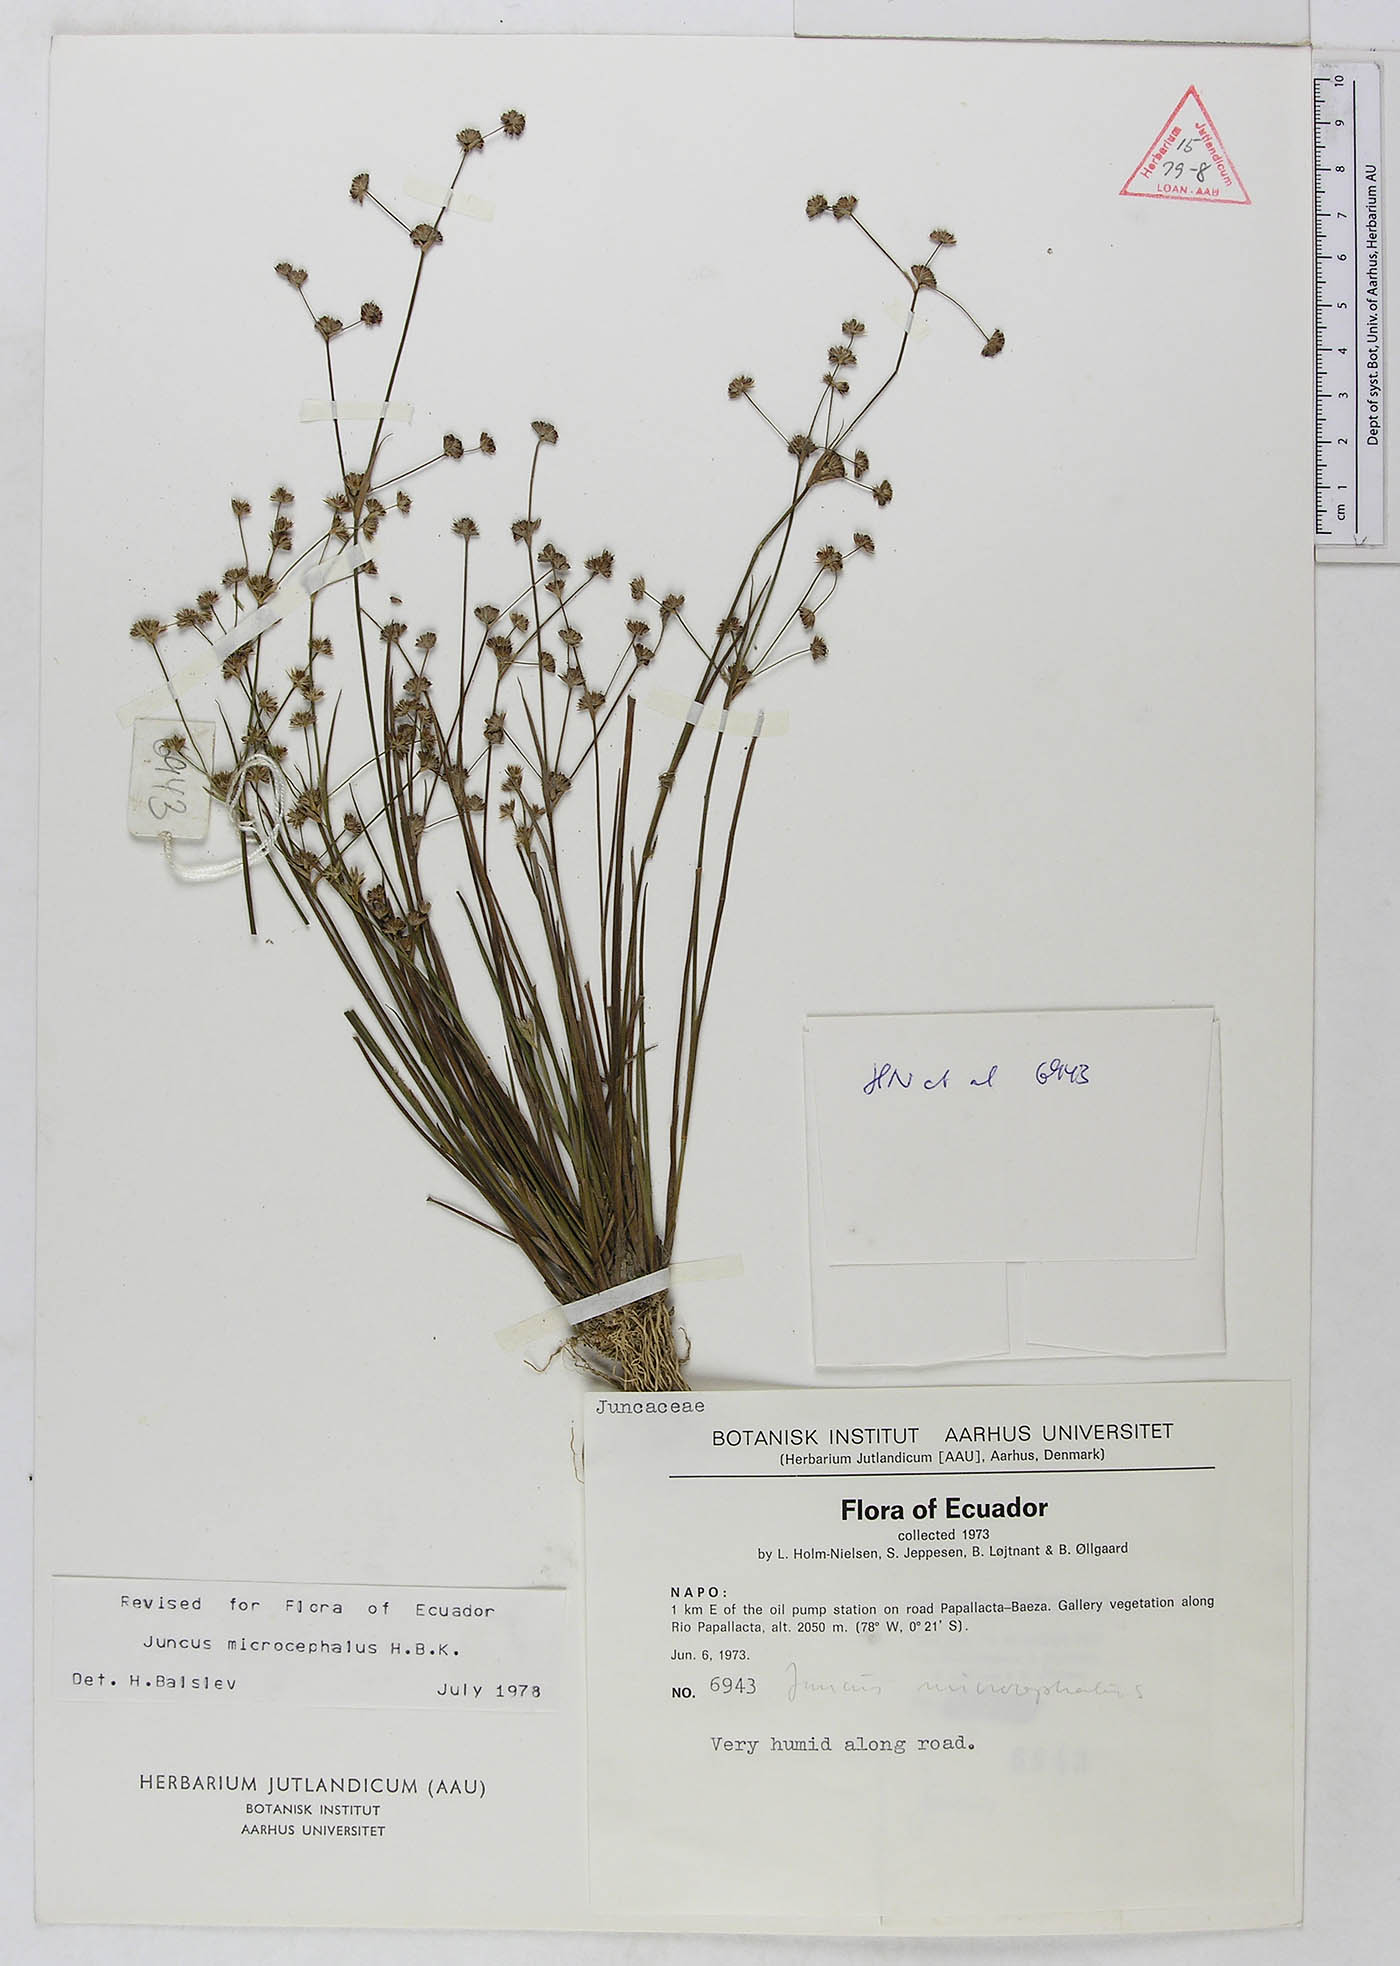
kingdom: Plantae
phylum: Tracheophyta
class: Liliopsida
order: Poales
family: Juncaceae
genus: Juncus
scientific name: Juncus microcephalus
